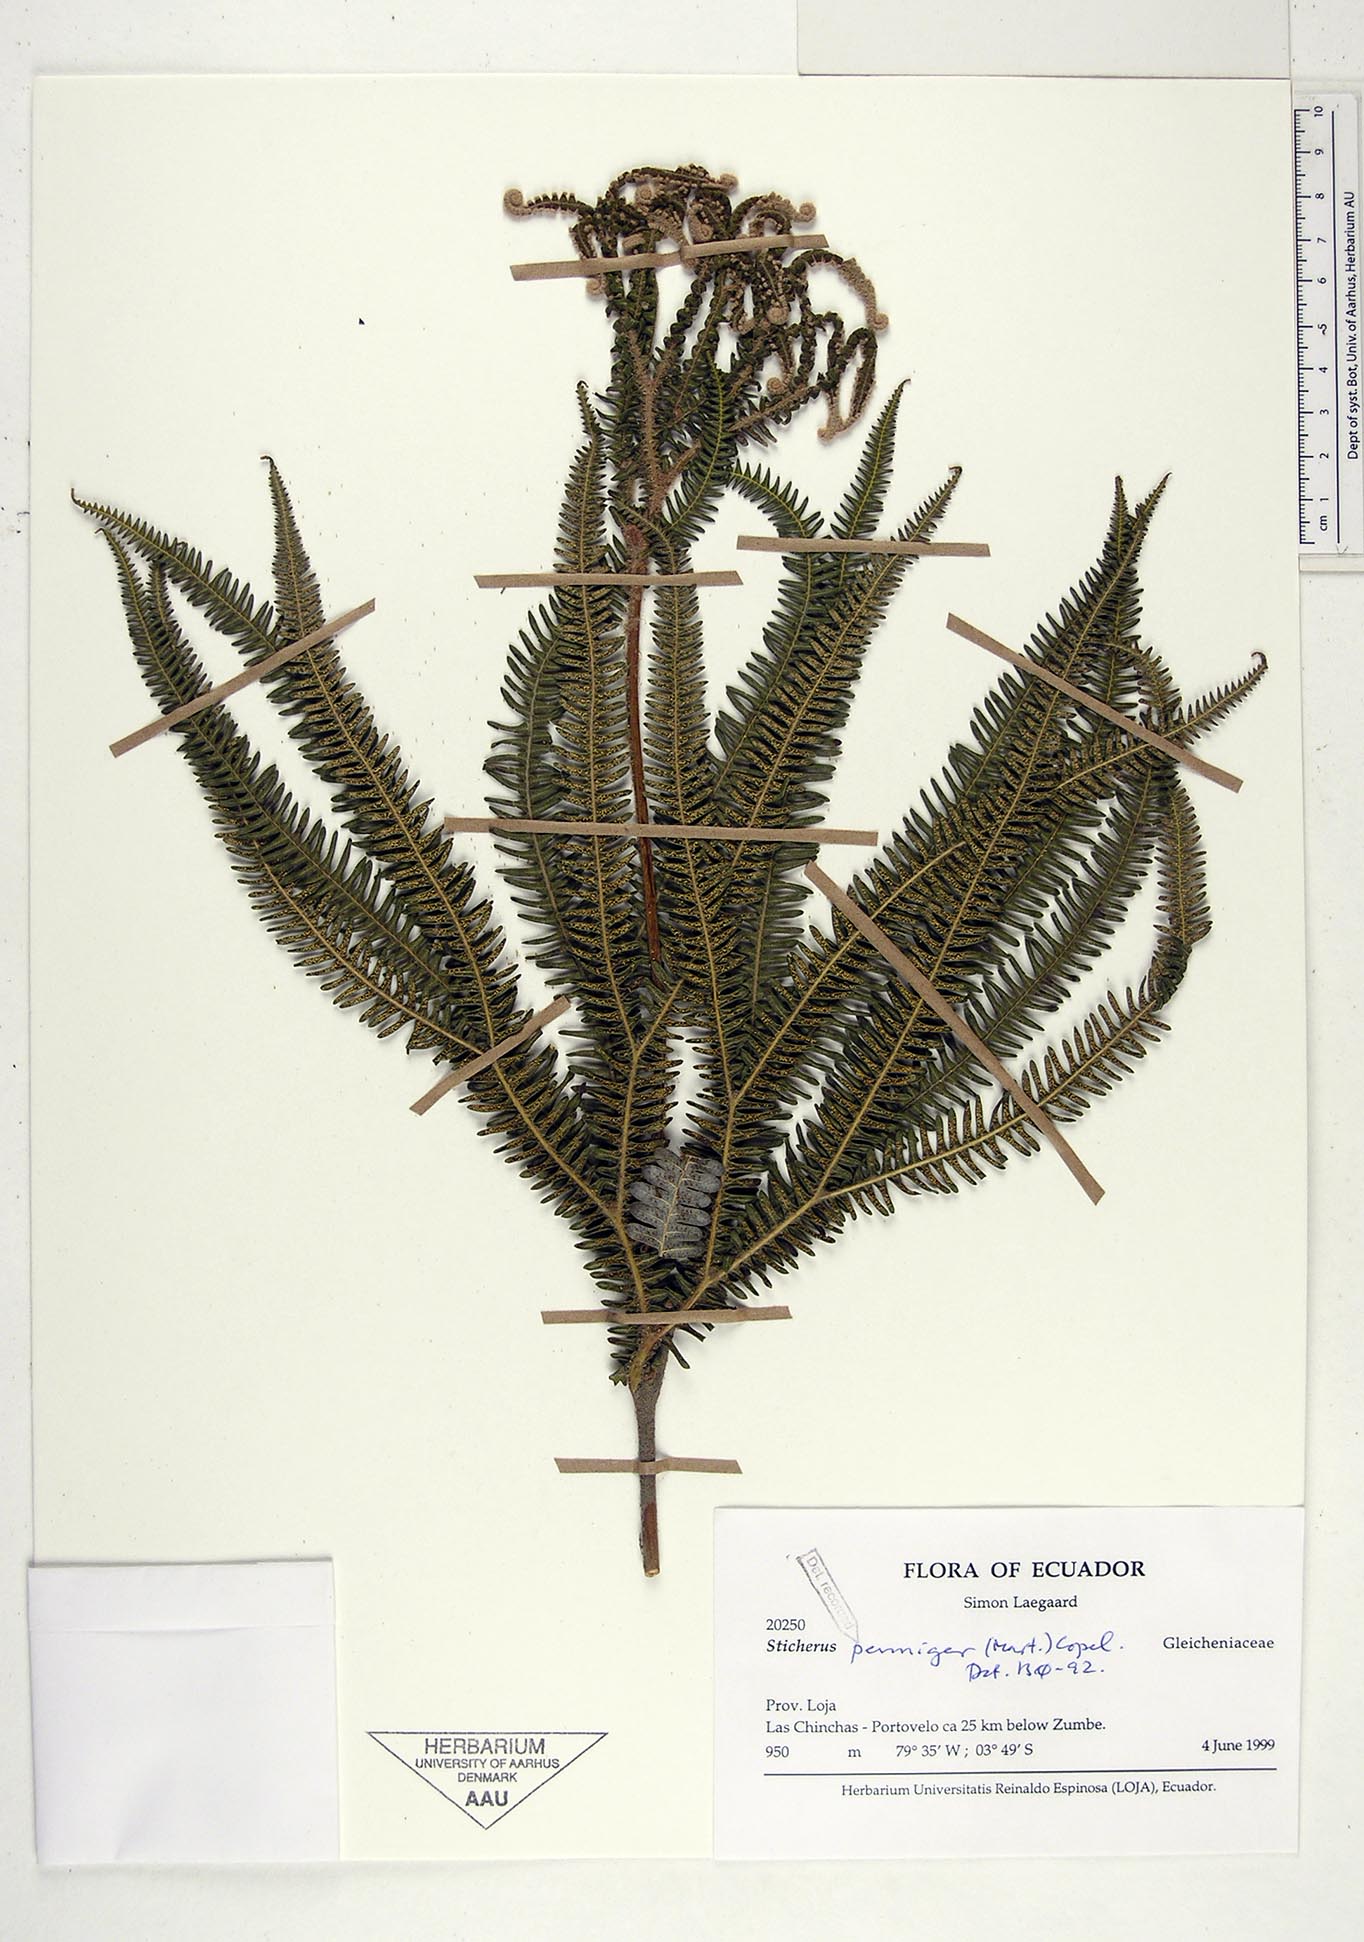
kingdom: Plantae
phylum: Tracheophyta
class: Polypodiopsida
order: Gleicheniales
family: Gleicheniaceae
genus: Sticherus
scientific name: Sticherus penniger
